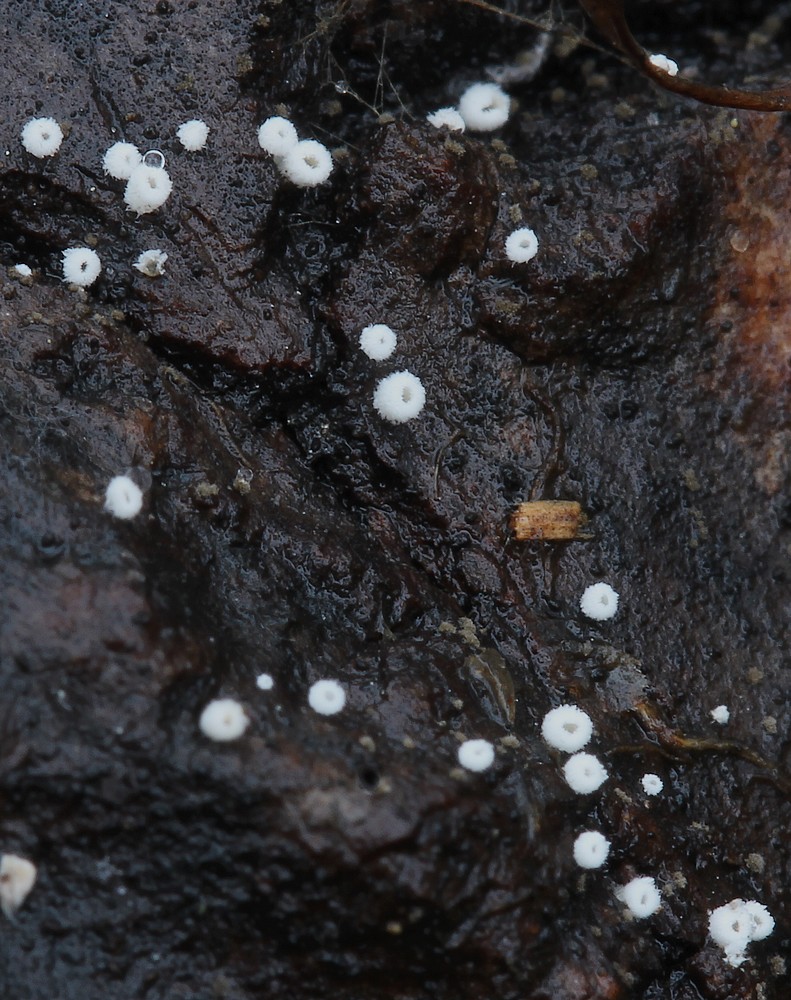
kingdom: Fungi
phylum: Basidiomycota
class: Agaricomycetes
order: Agaricales
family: Niaceae
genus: Flagelloscypha
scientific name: Flagelloscypha
